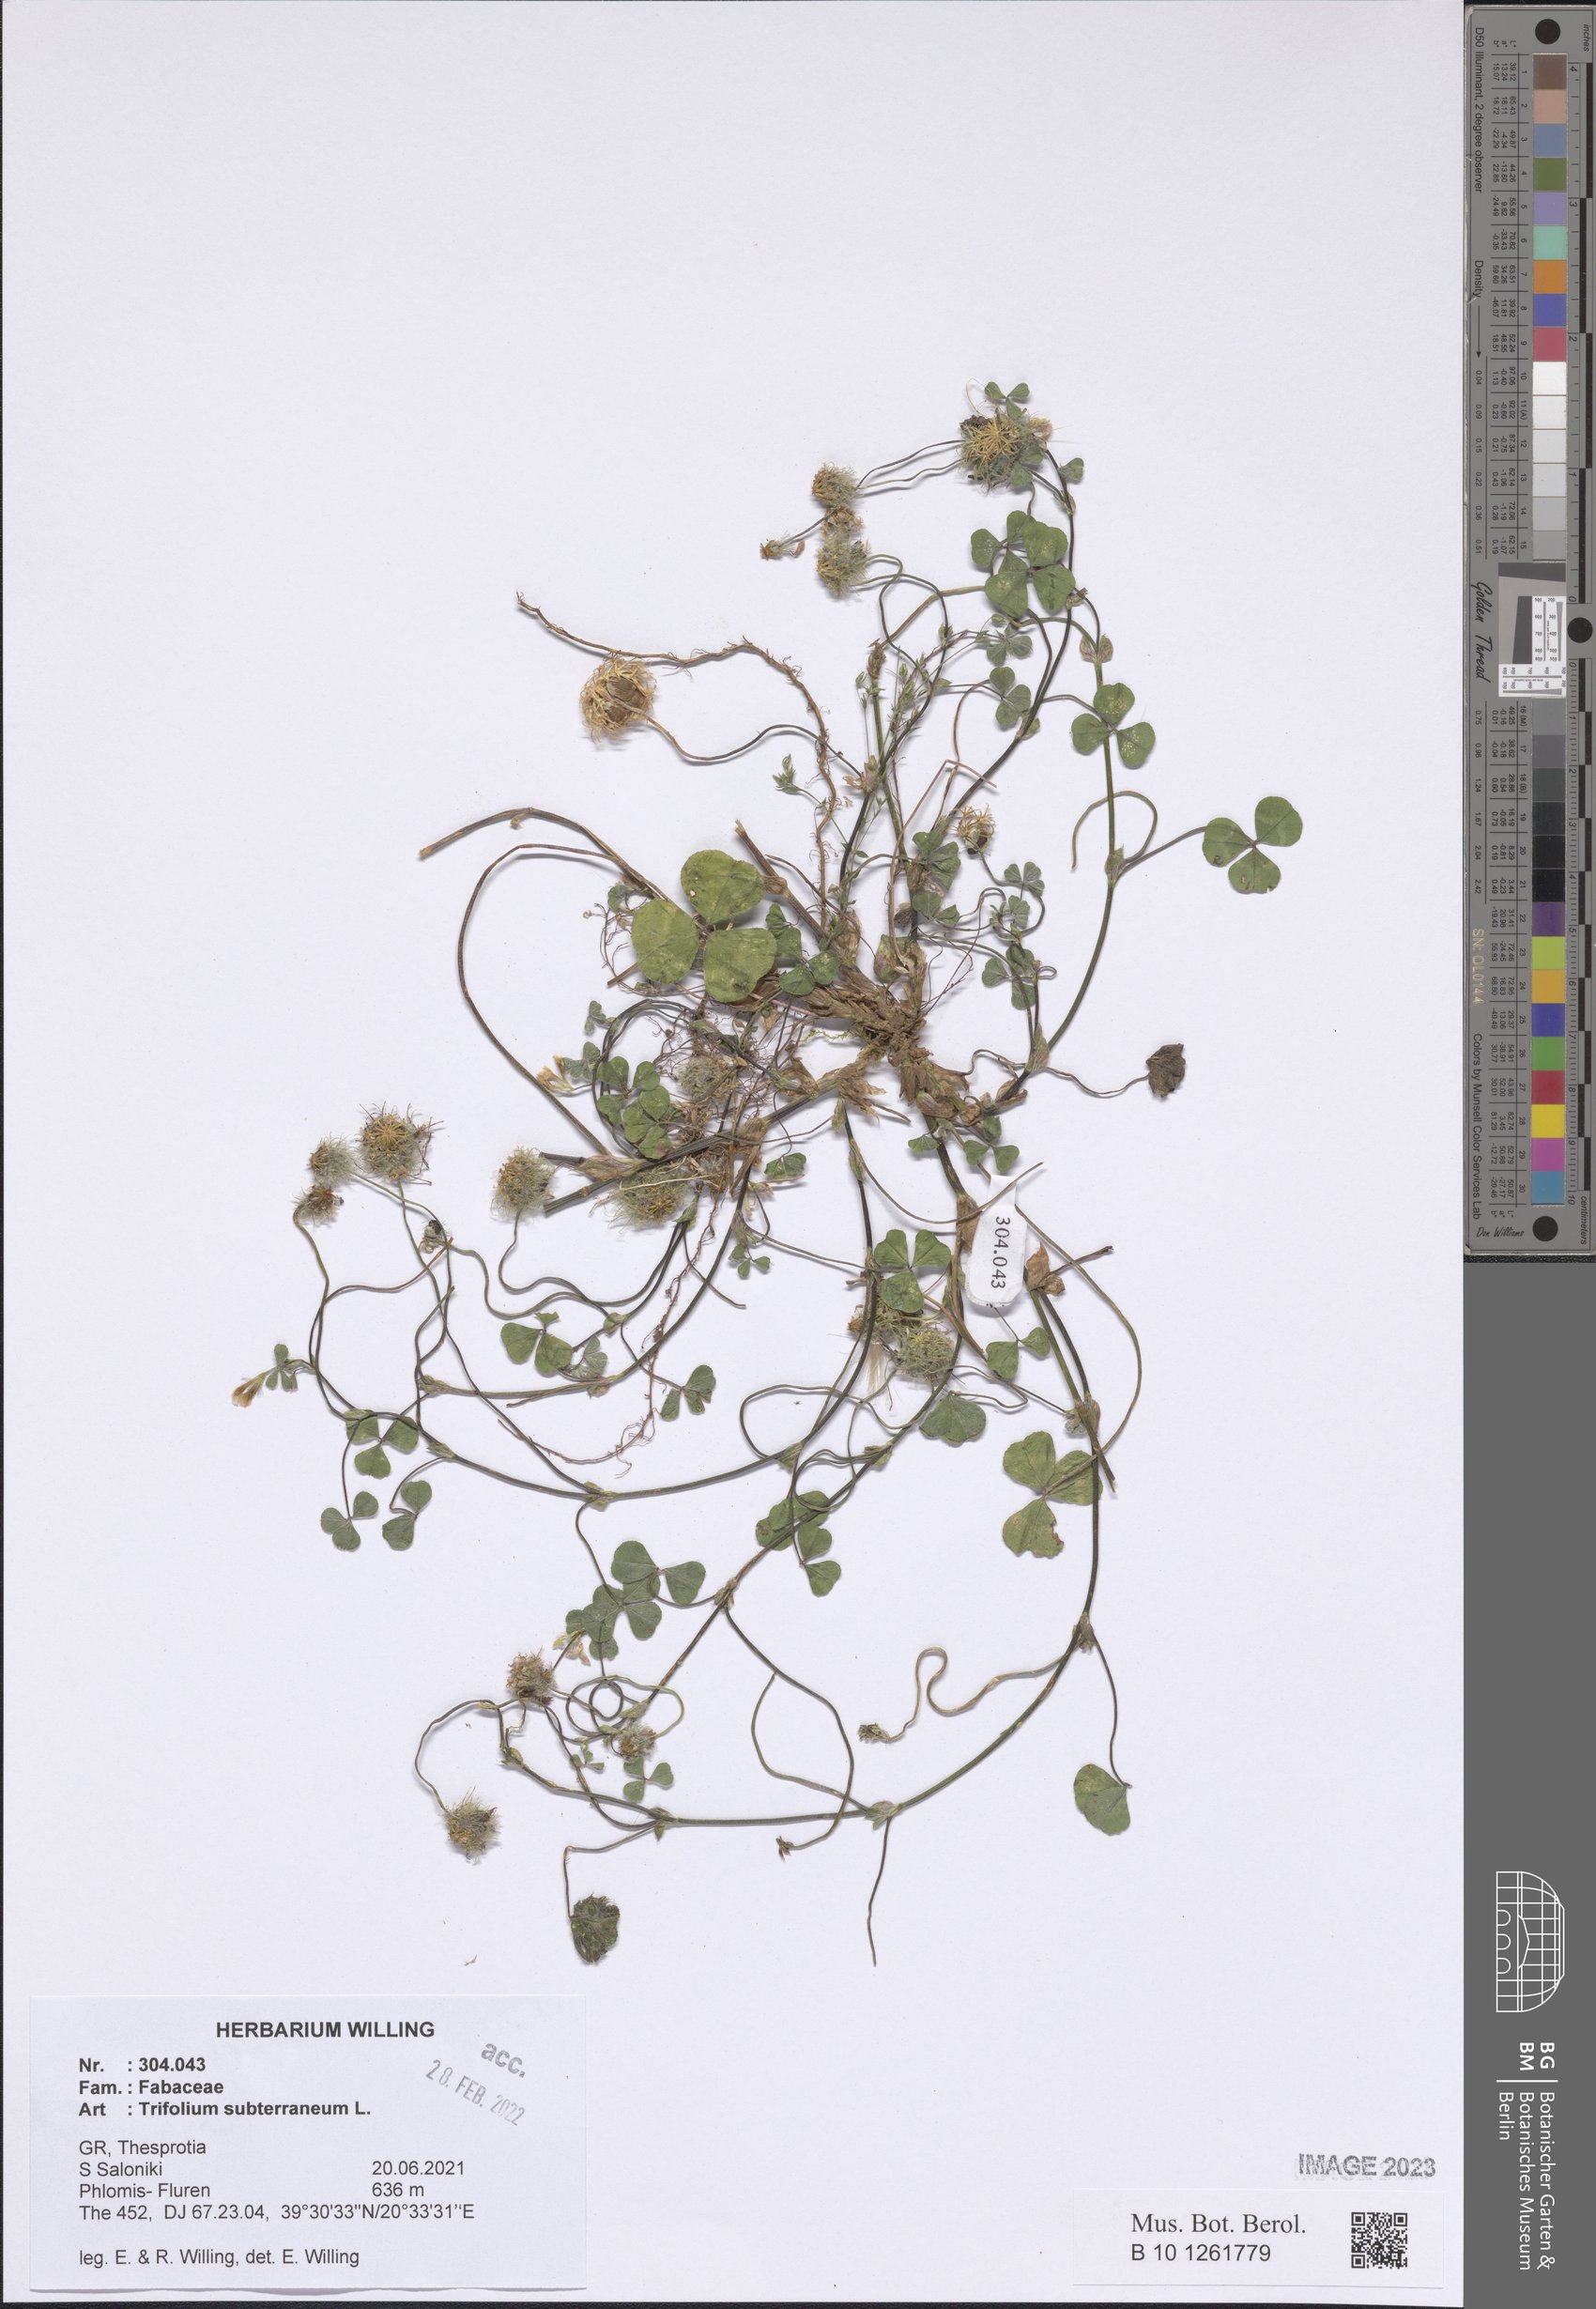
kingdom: Plantae
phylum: Tracheophyta
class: Magnoliopsida
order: Fabales
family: Fabaceae
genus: Trifolium
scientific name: Trifolium subterraneum
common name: Subterranean clover
